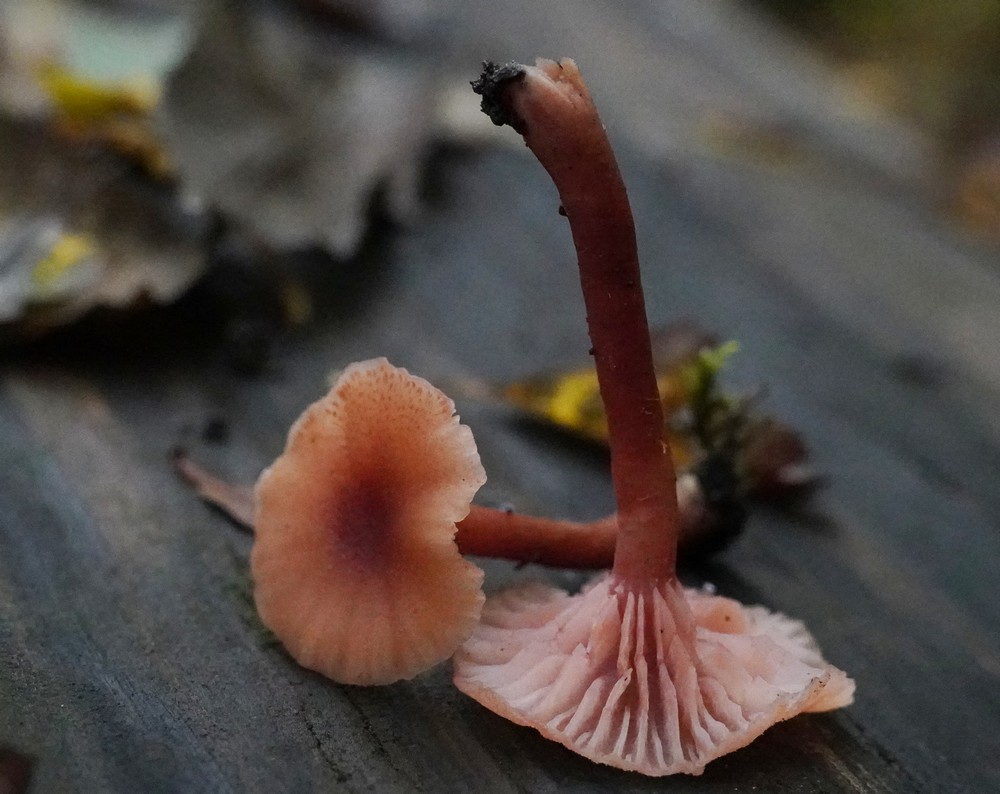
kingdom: Fungi
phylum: Basidiomycota
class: Agaricomycetes
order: Agaricales
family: Hydnangiaceae
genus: Laccaria
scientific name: Laccaria laccata
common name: rød ametysthat
